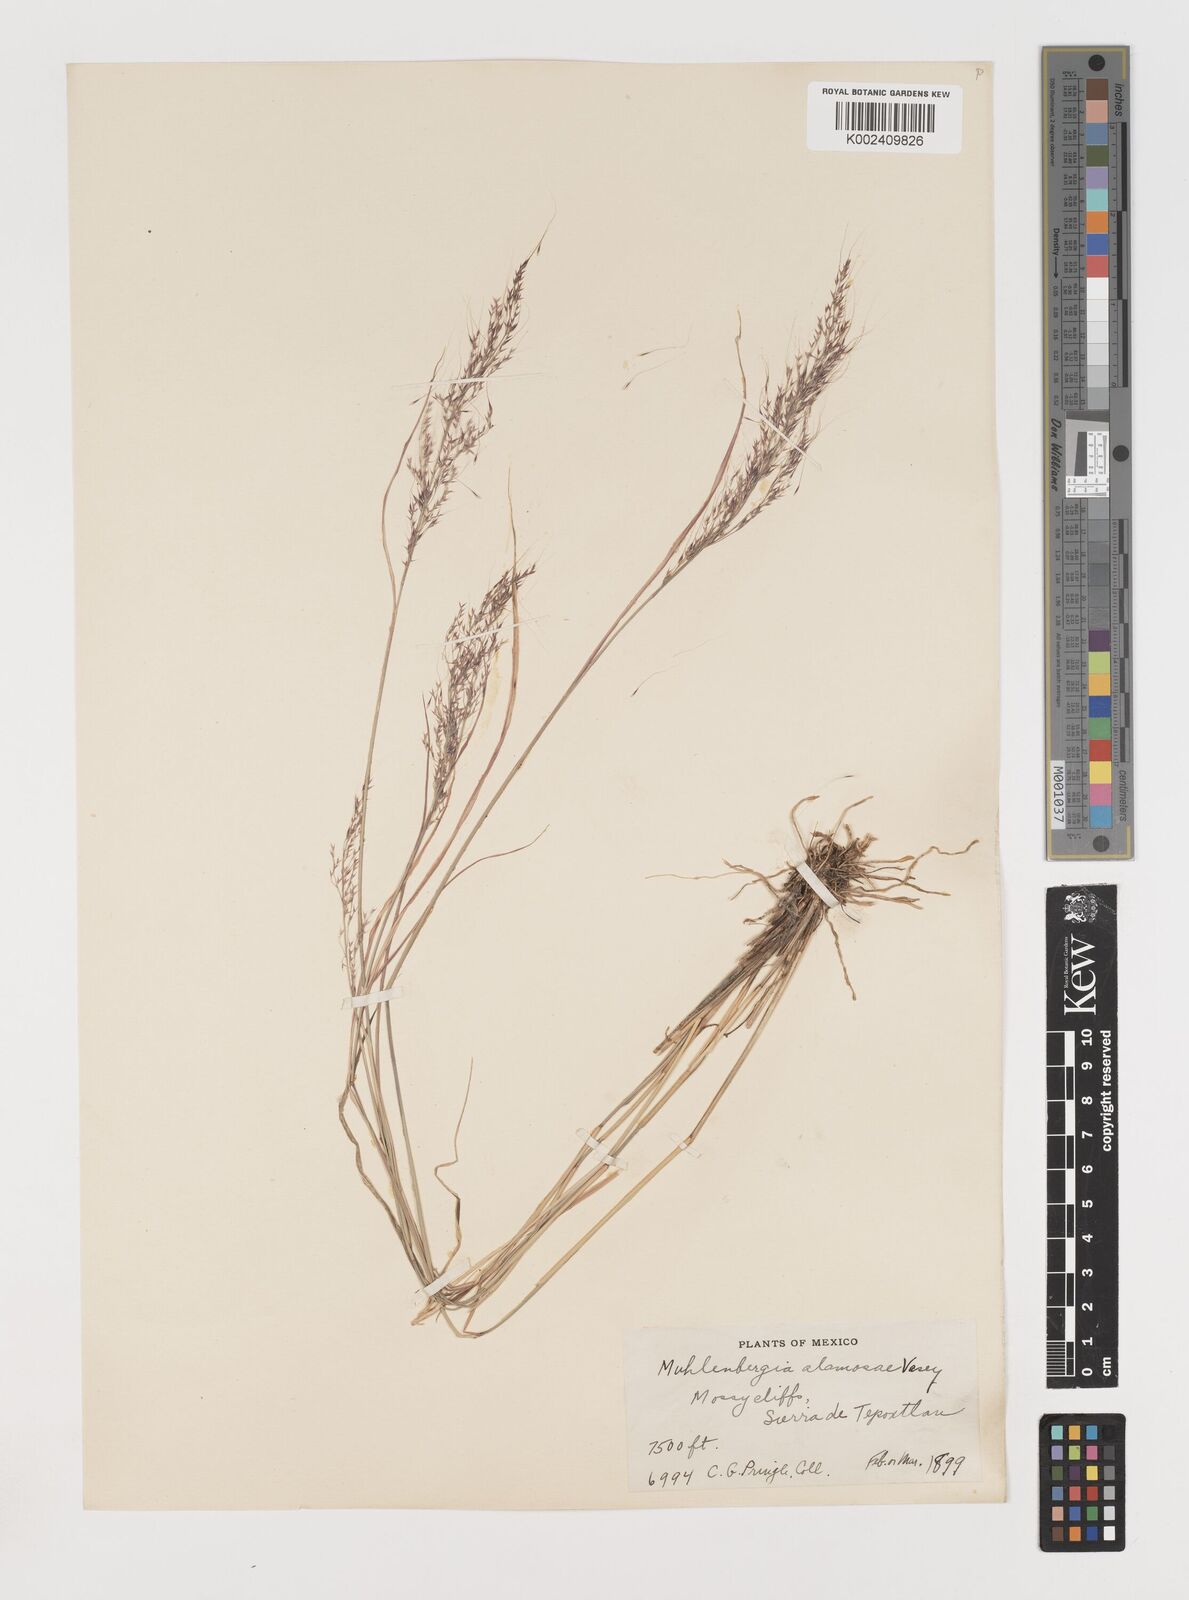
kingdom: Plantae
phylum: Tracheophyta
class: Liliopsida
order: Poales
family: Poaceae
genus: Muhlenbergia
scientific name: Muhlenbergia alamosae
